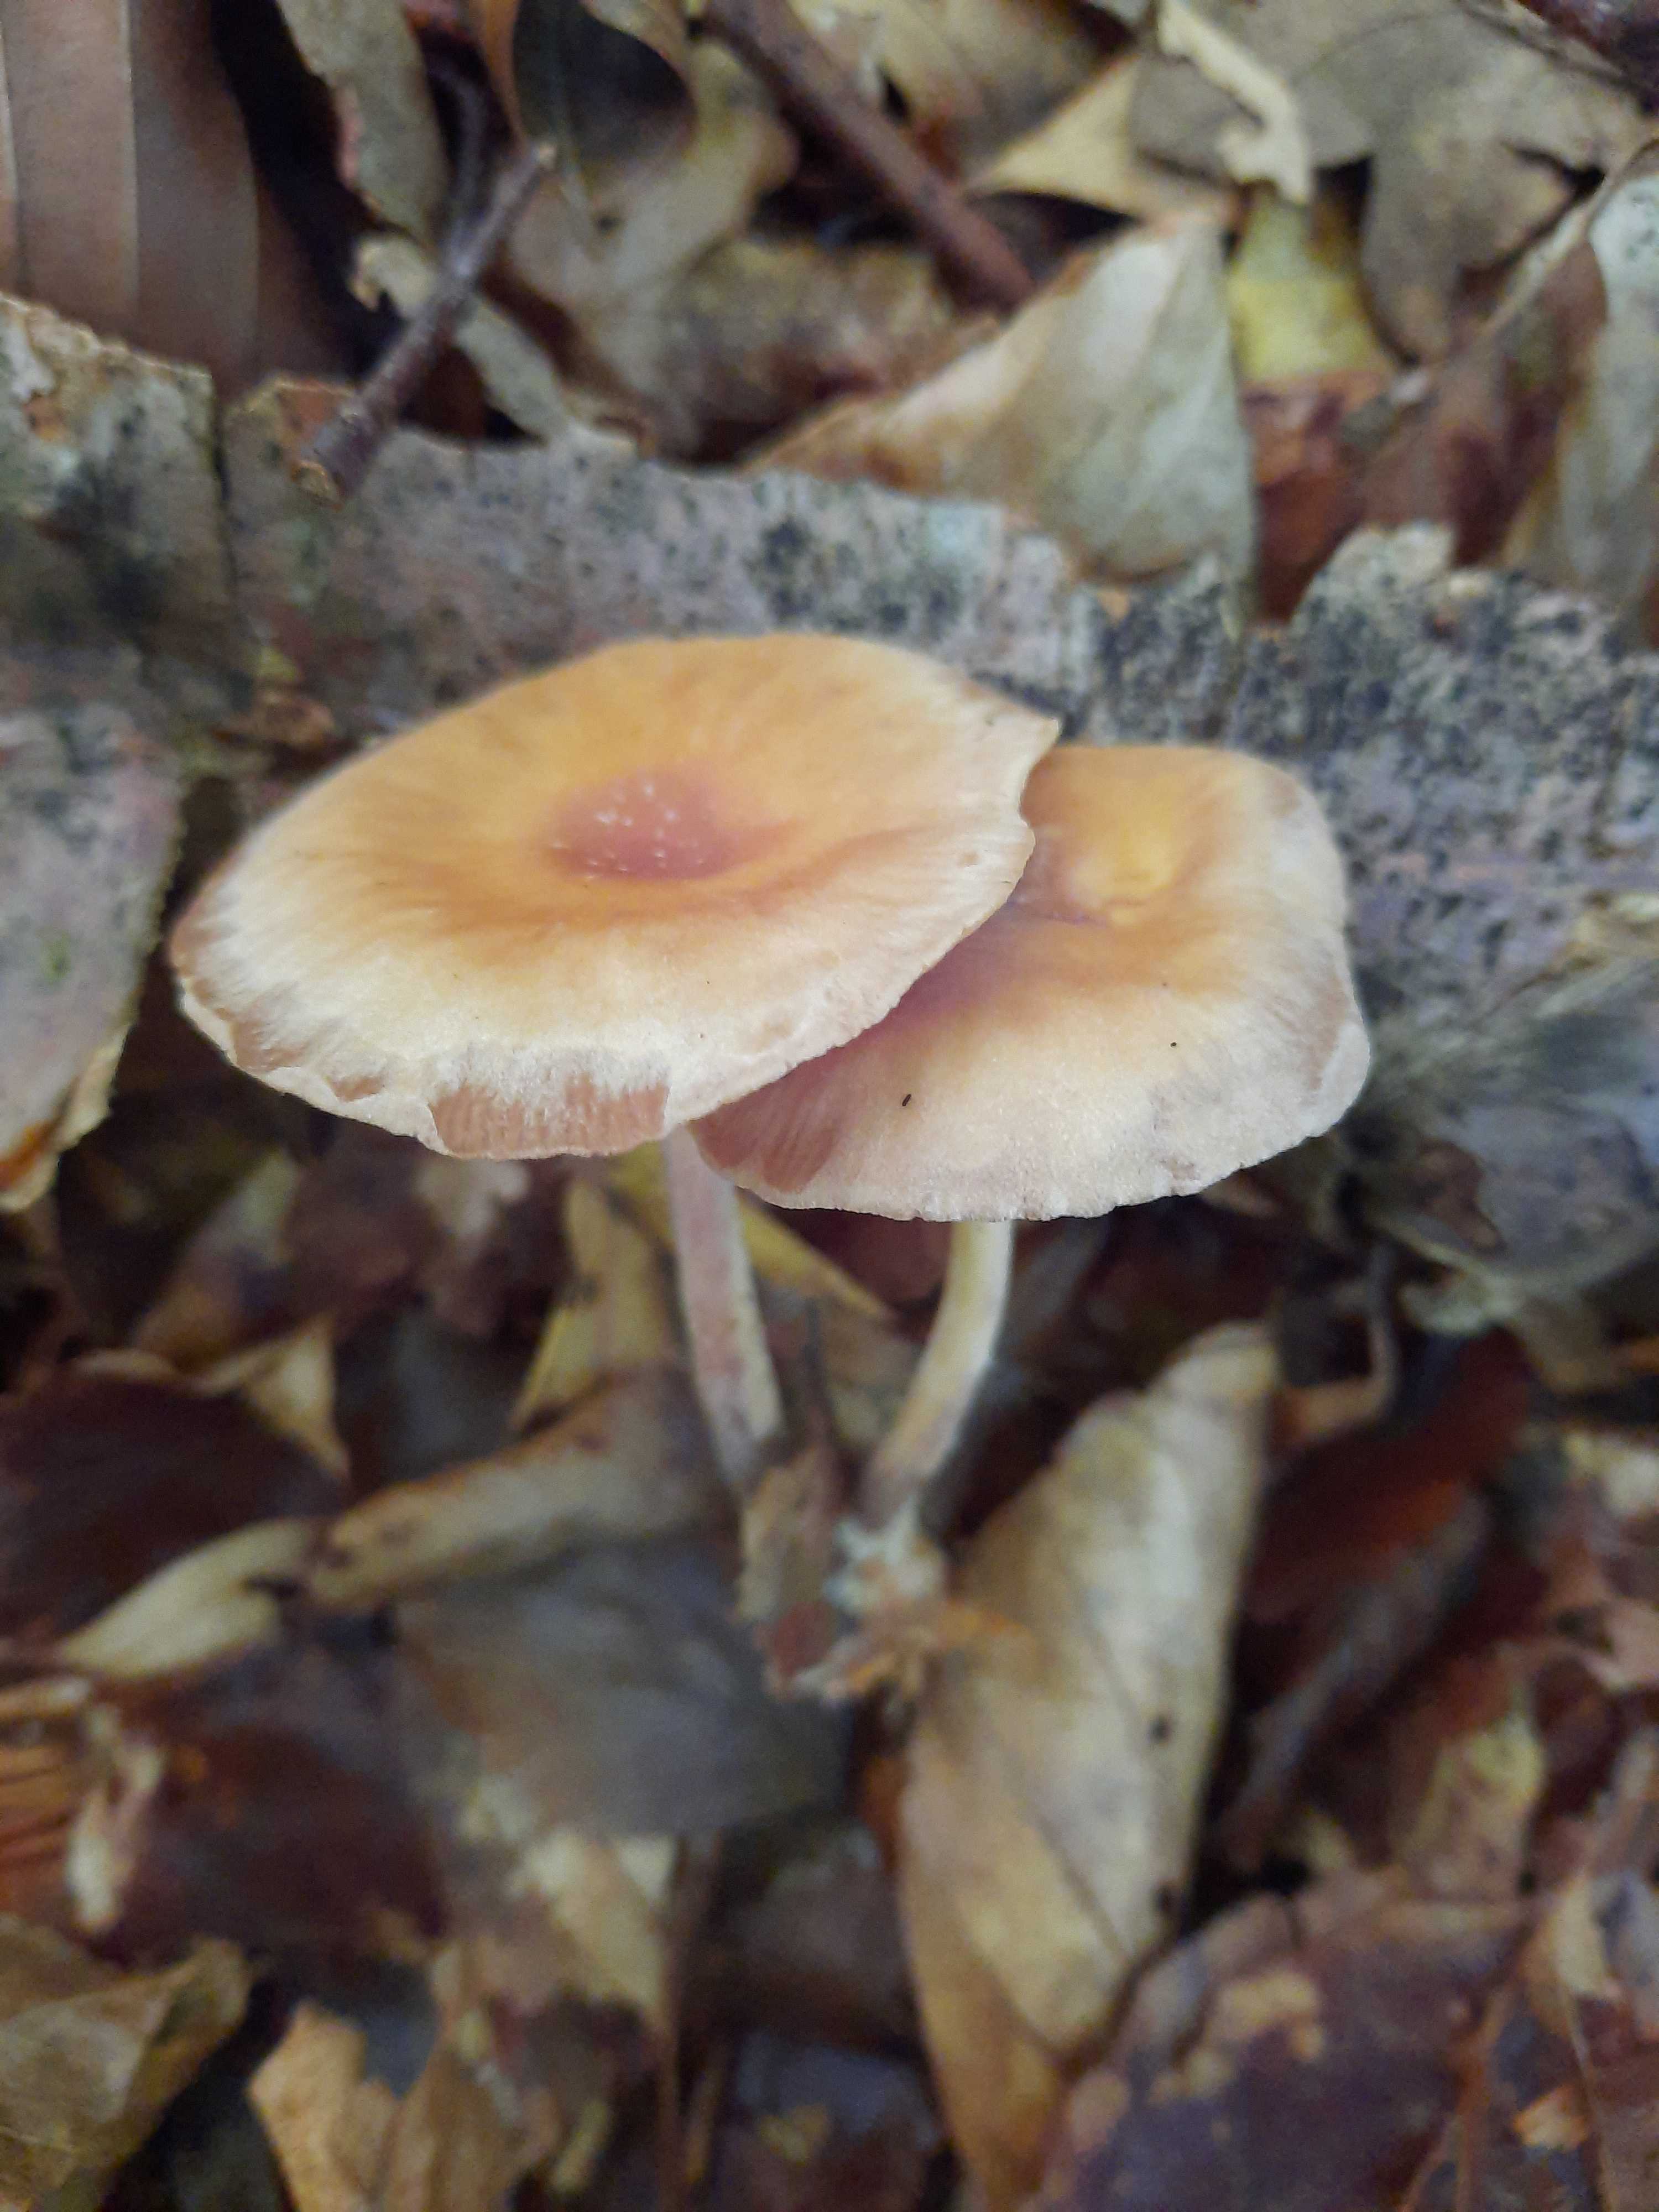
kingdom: Fungi
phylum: Basidiomycota
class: Agaricomycetes
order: Agaricales
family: Omphalotaceae
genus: Gymnopus
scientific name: Gymnopus
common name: fladhat
